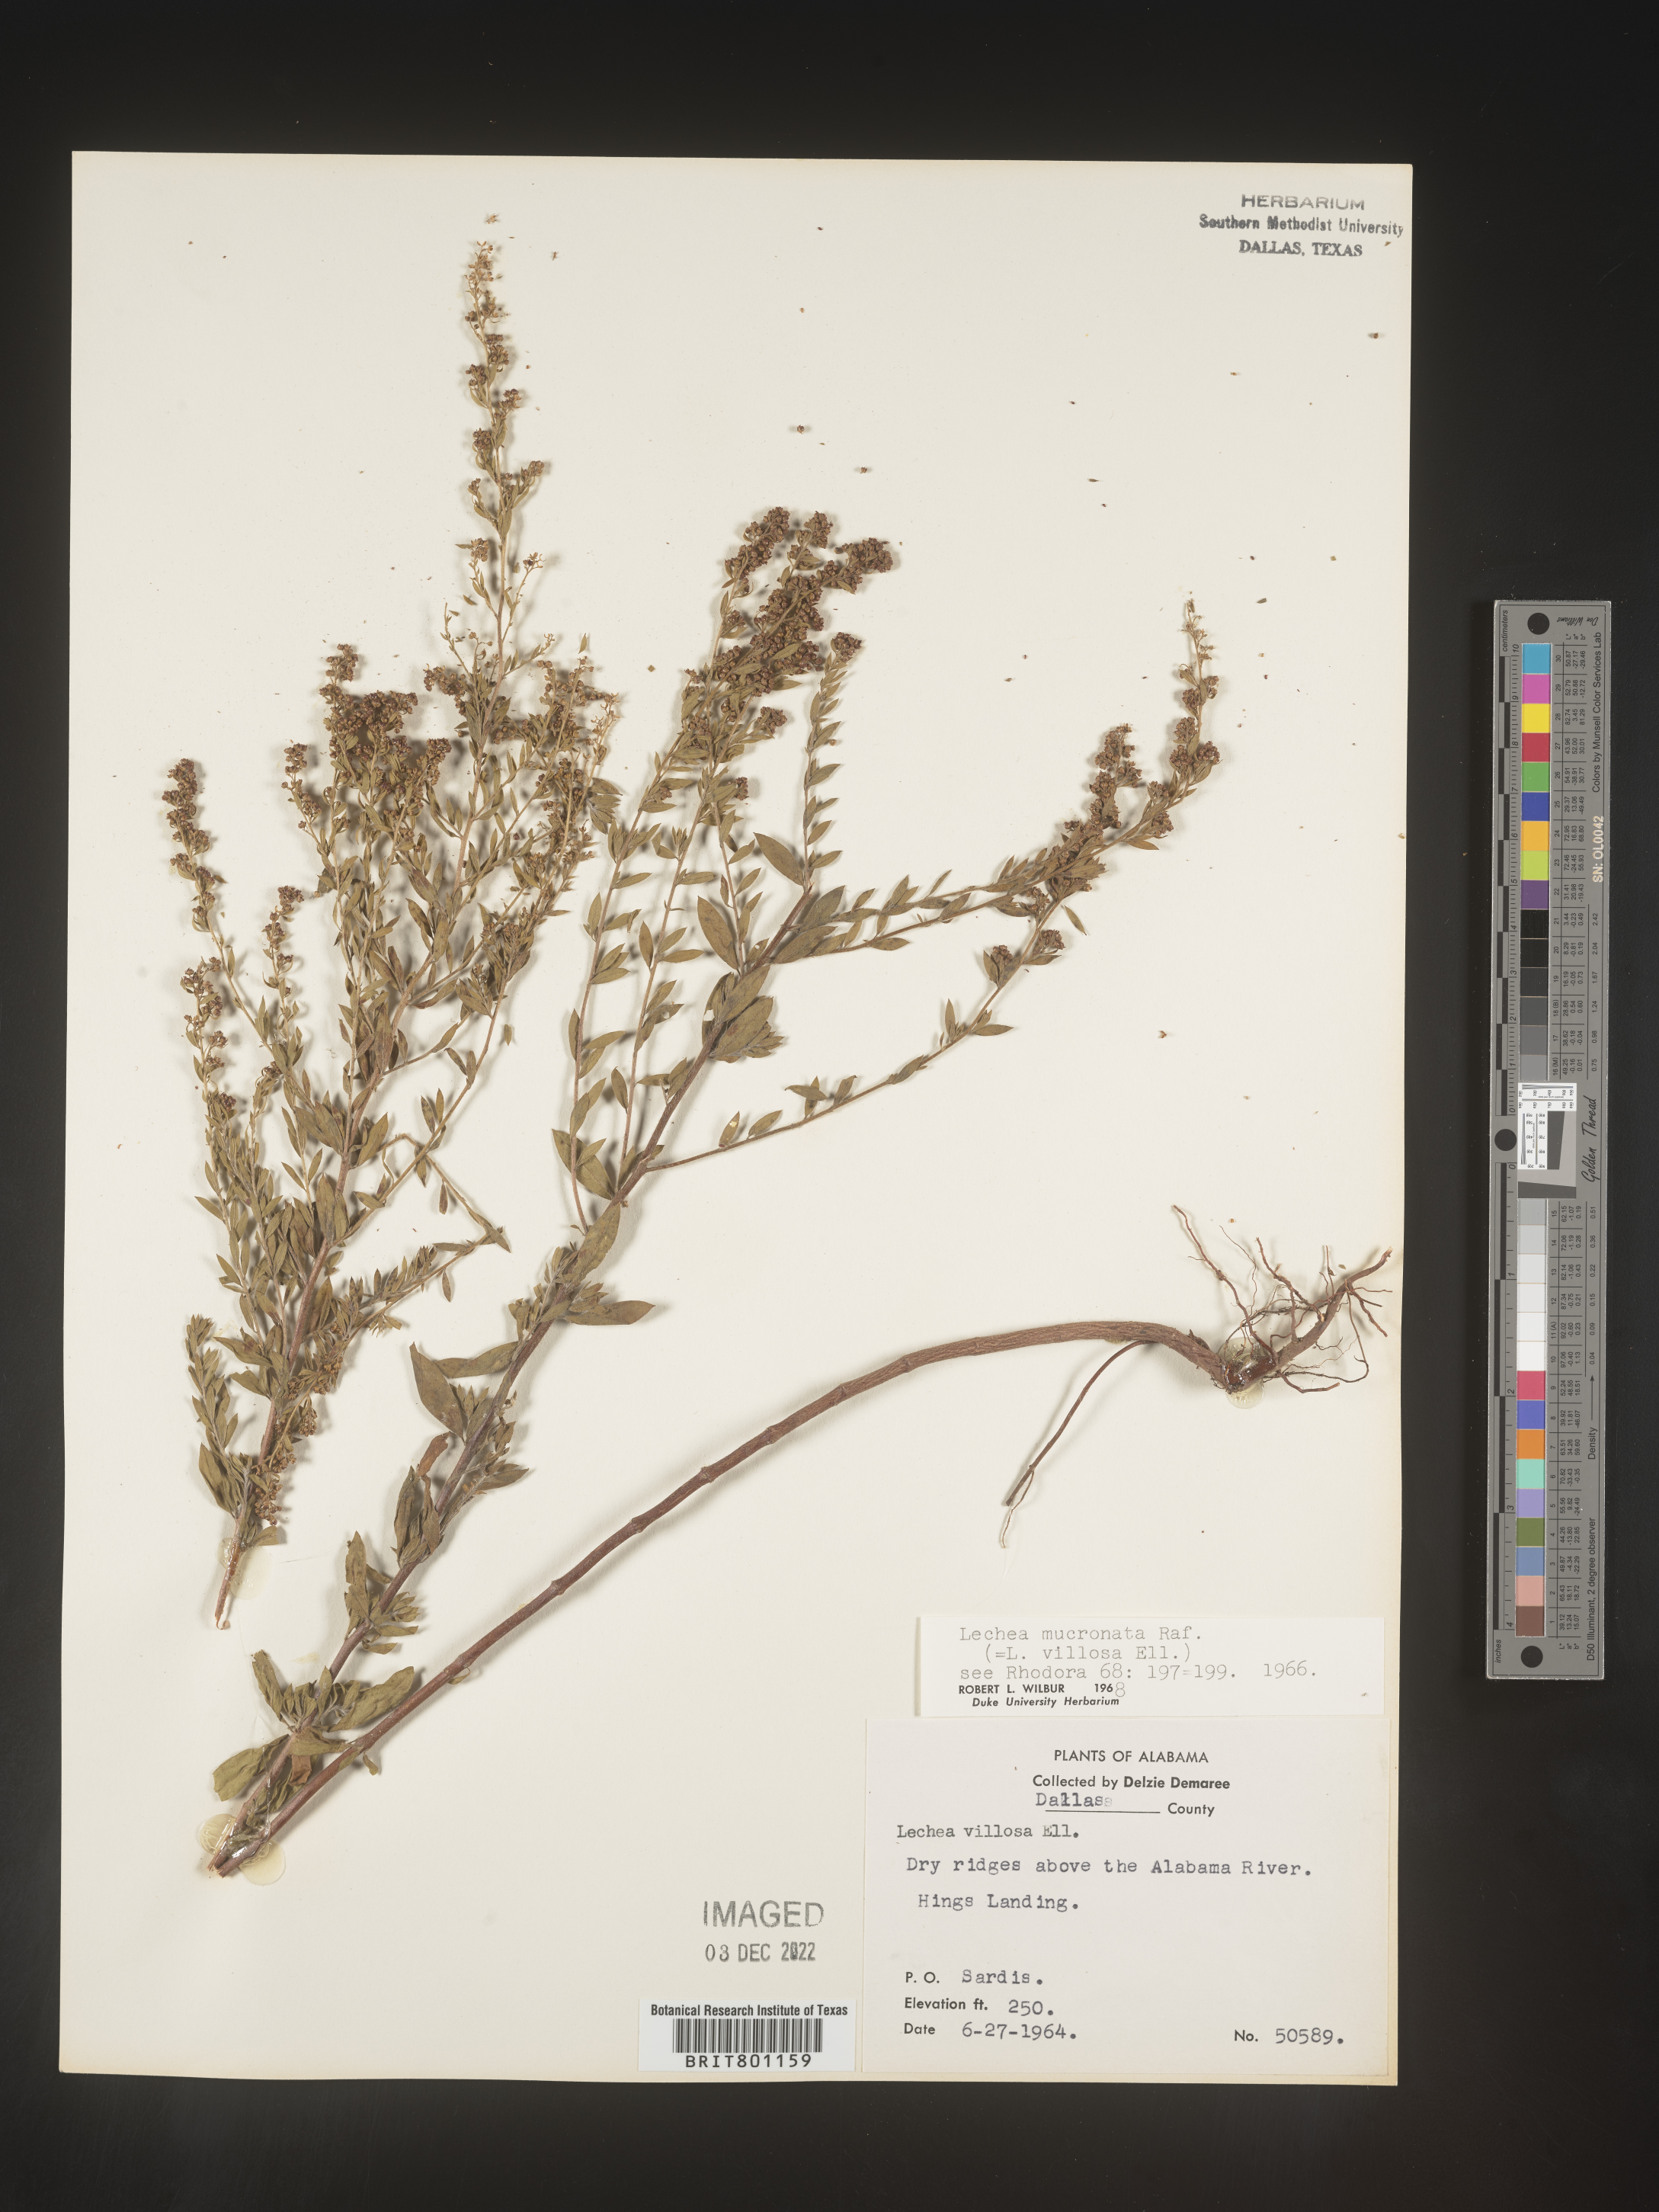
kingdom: Plantae
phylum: Tracheophyta
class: Magnoliopsida
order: Malvales
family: Cistaceae
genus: Lechea
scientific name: Lechea mucronata
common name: Hairy pinweed
